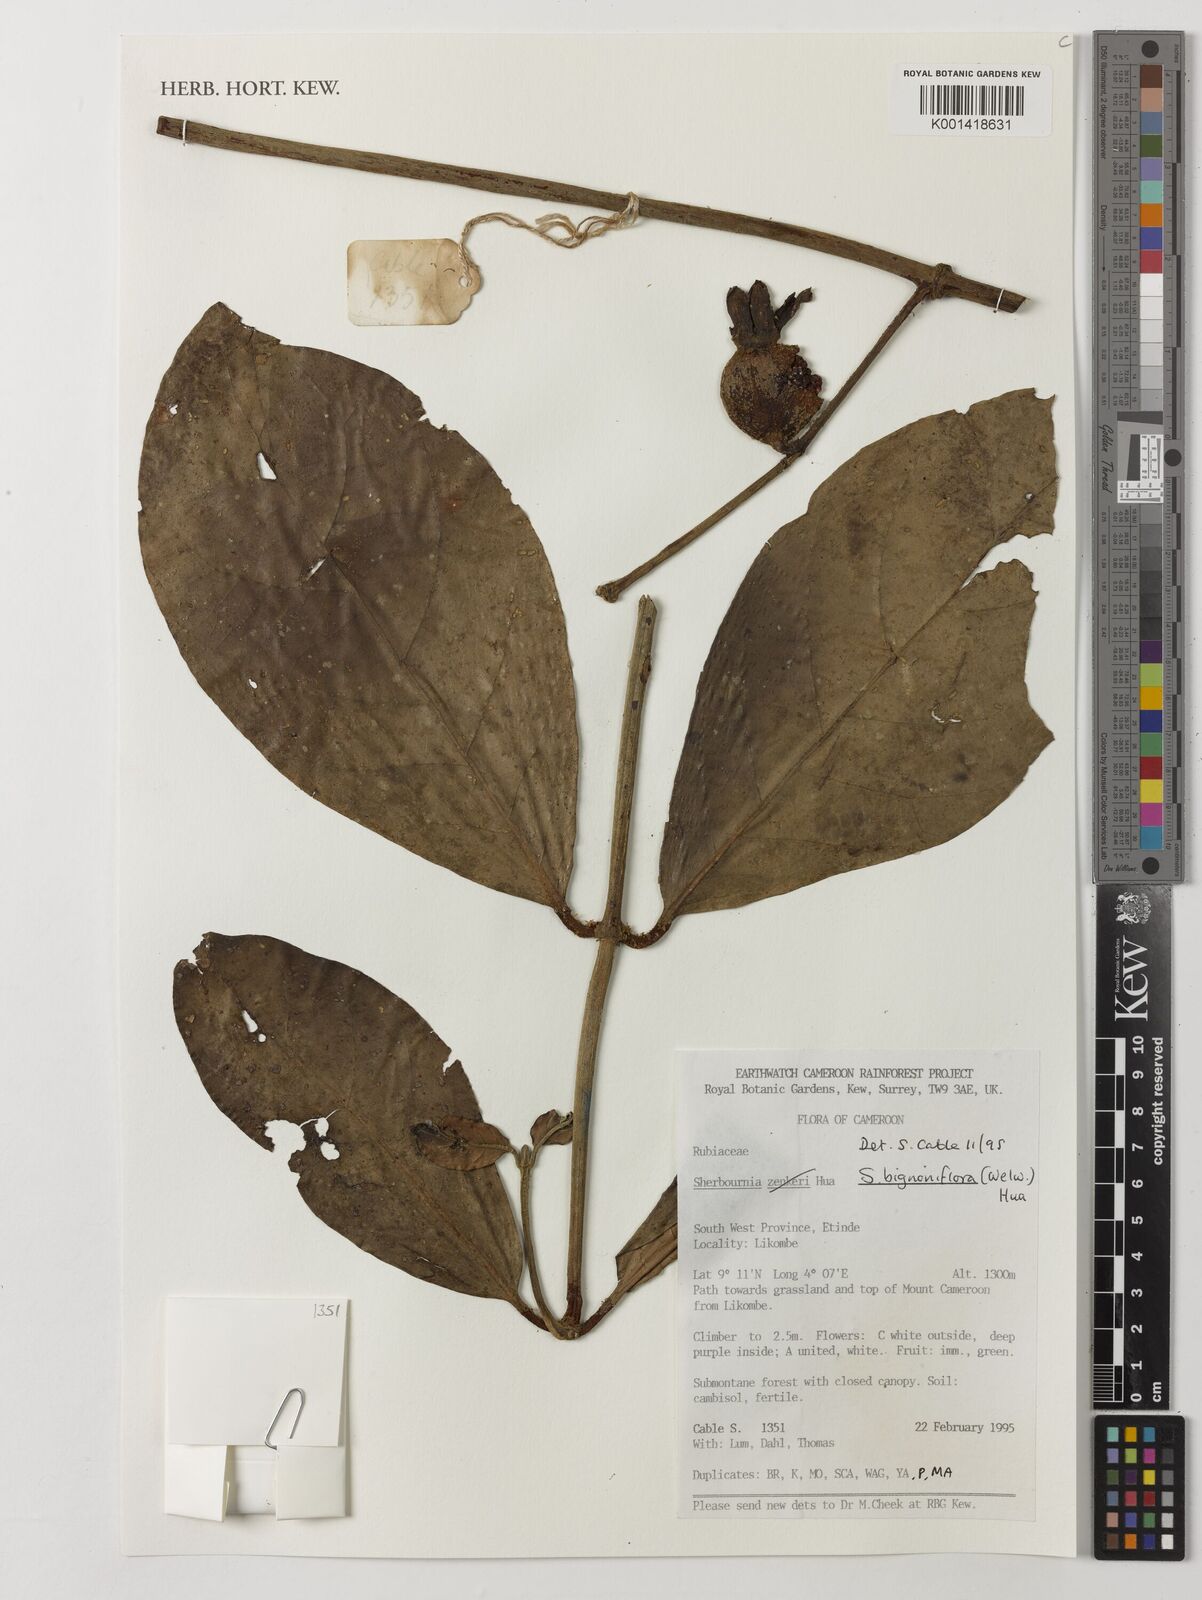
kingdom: Plantae
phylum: Tracheophyta
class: Magnoliopsida
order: Gentianales
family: Rubiaceae
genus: Sherbournia
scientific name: Sherbournia bignoniiflora
